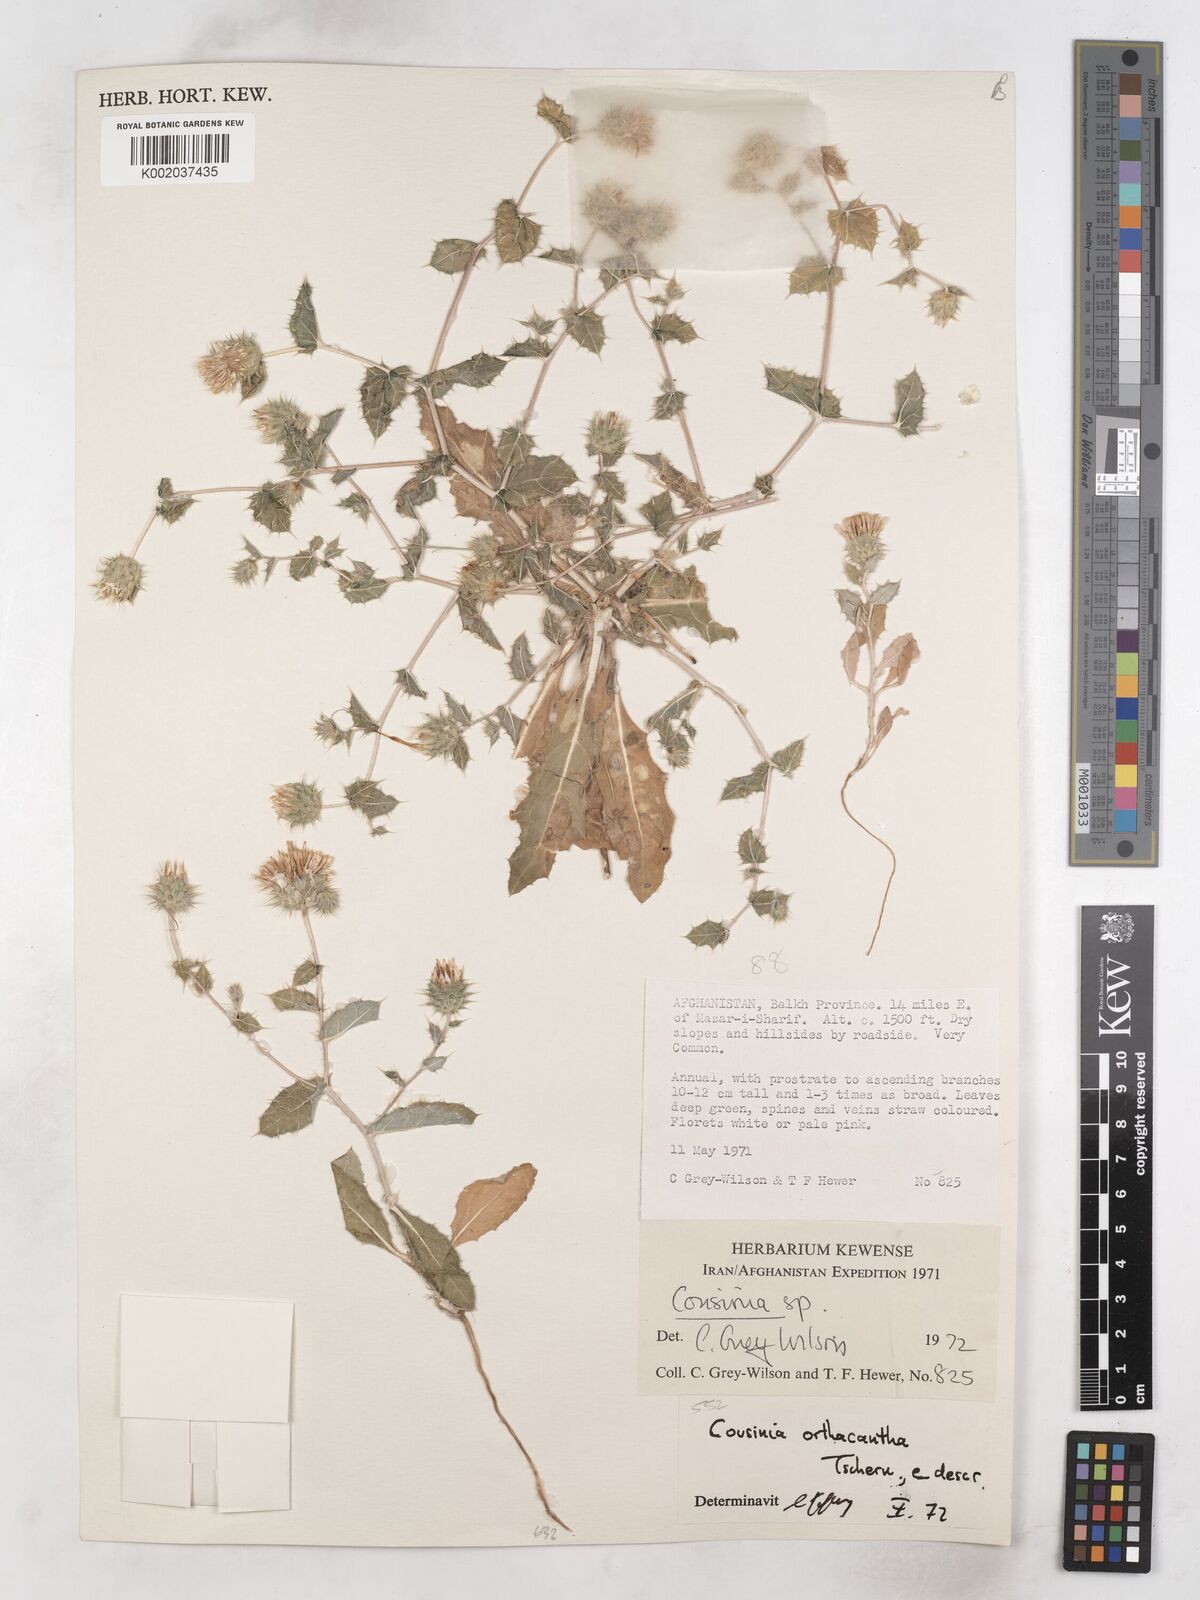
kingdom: Plantae
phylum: Tracheophyta
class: Magnoliopsida
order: Asterales
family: Asteraceae
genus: Cousinia
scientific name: Cousinia orthacantha
